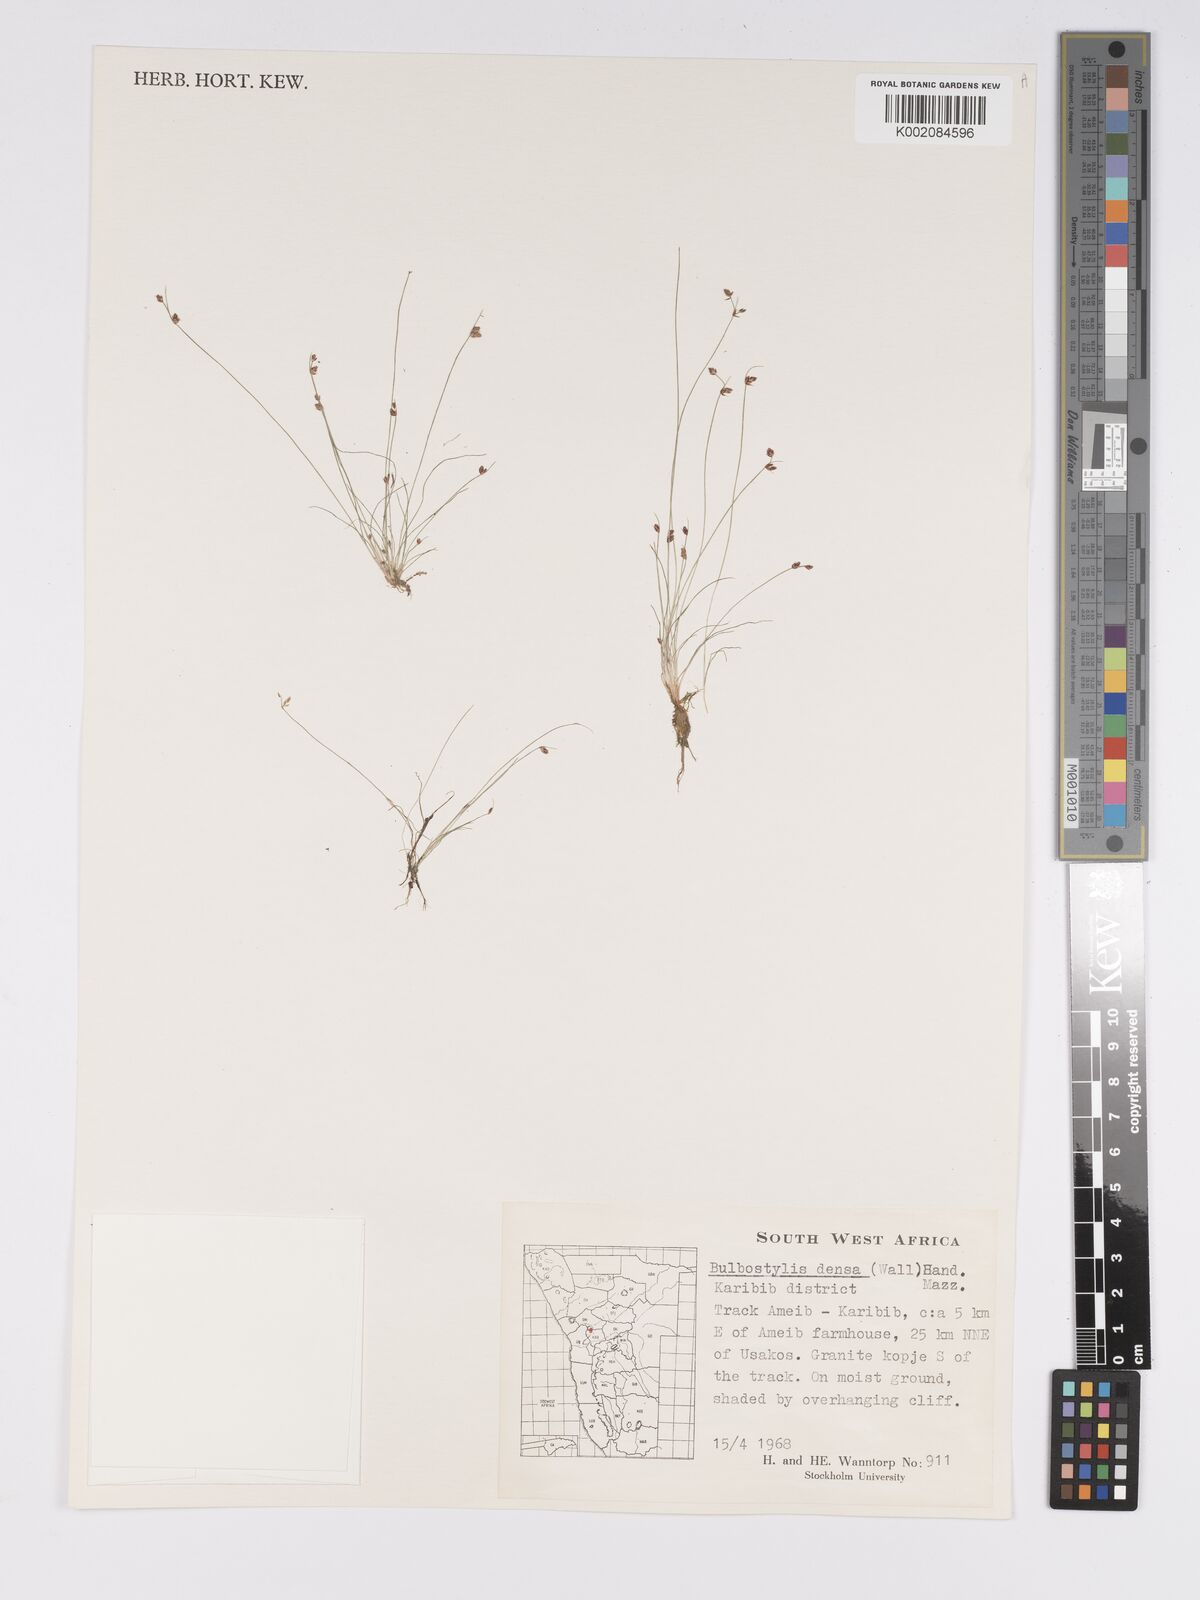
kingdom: Plantae
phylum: Tracheophyta
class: Liliopsida
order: Poales
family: Cyperaceae
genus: Bulbostylis
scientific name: Bulbostylis densa
